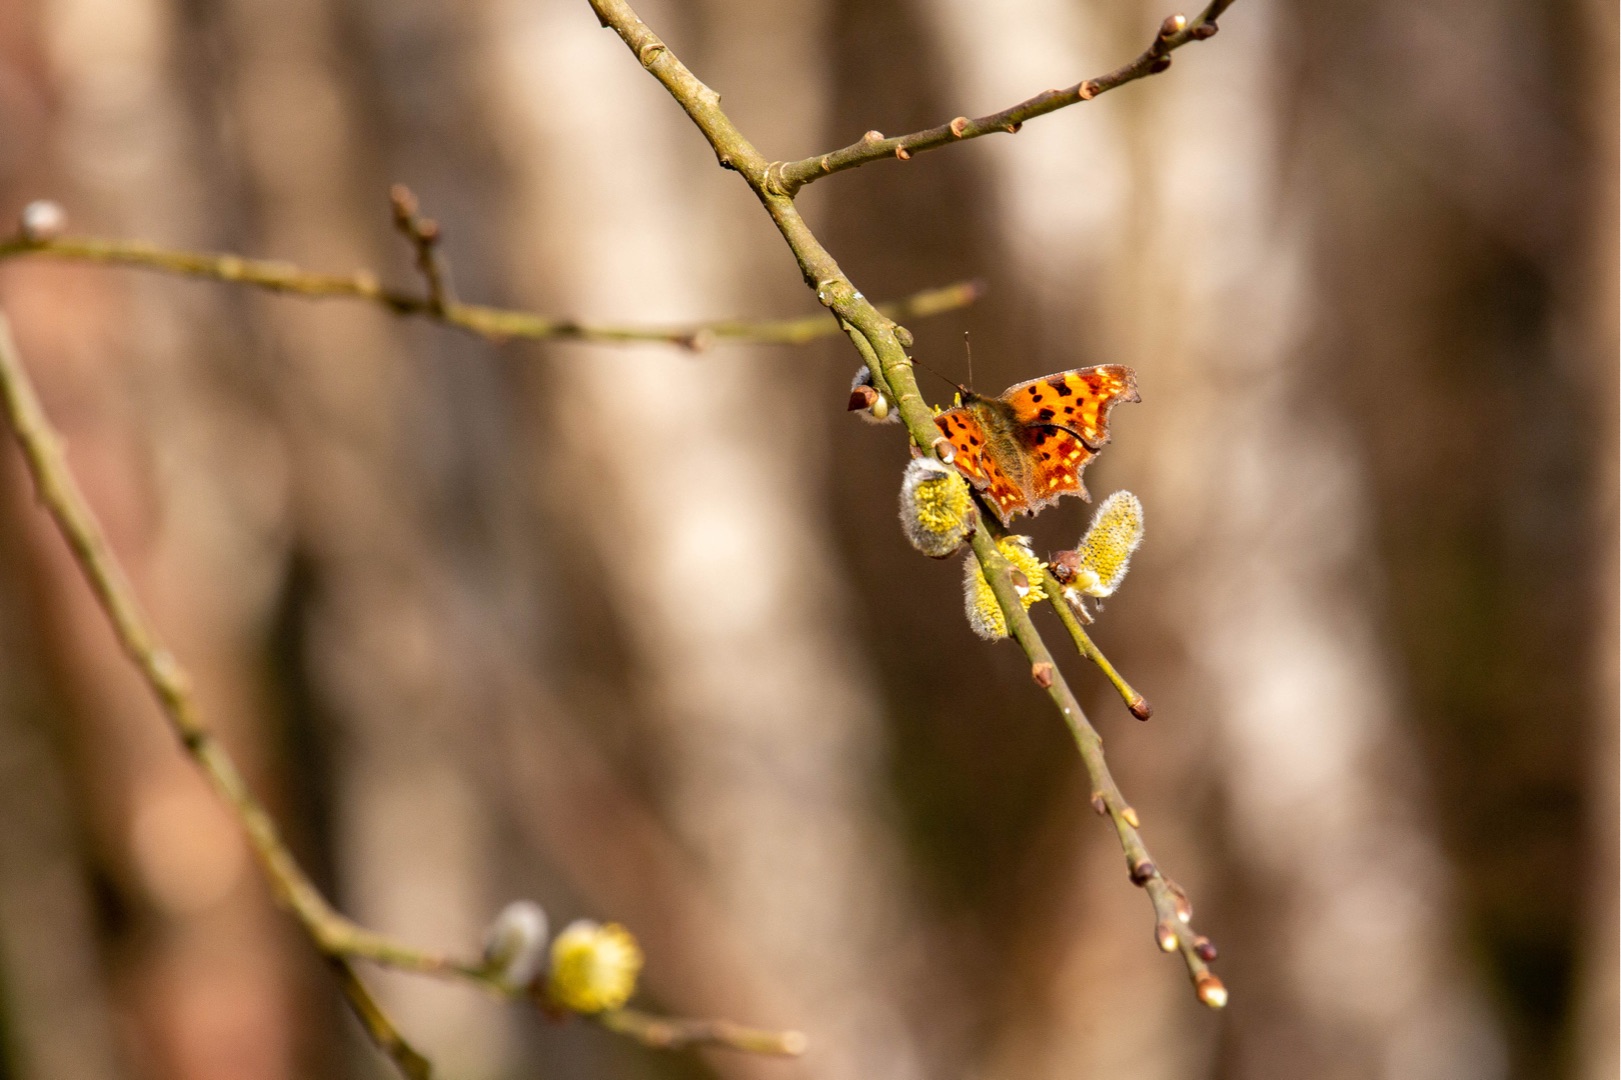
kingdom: Animalia
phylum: Arthropoda
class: Insecta
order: Lepidoptera
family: Nymphalidae
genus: Polygonia
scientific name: Polygonia c-album
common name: Det hvide C
